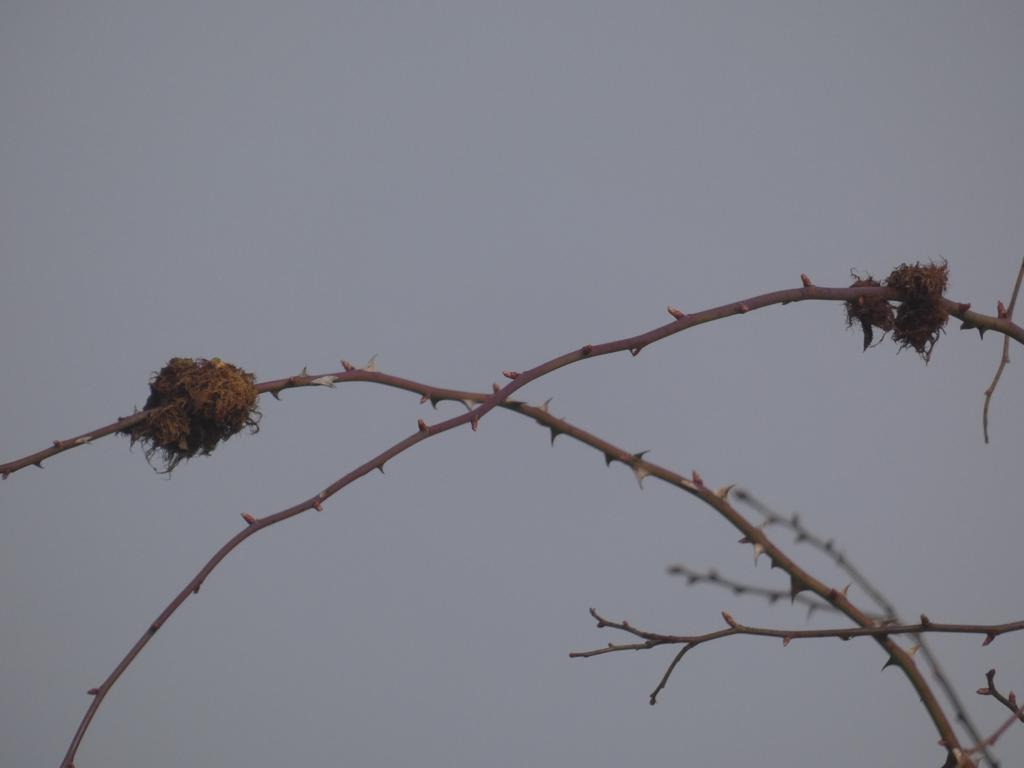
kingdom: Animalia
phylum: Arthropoda
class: Insecta
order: Hymenoptera
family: Cynipidae
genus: Diplolepis
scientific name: Diplolepis rosae
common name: Bedeguargalhveps
